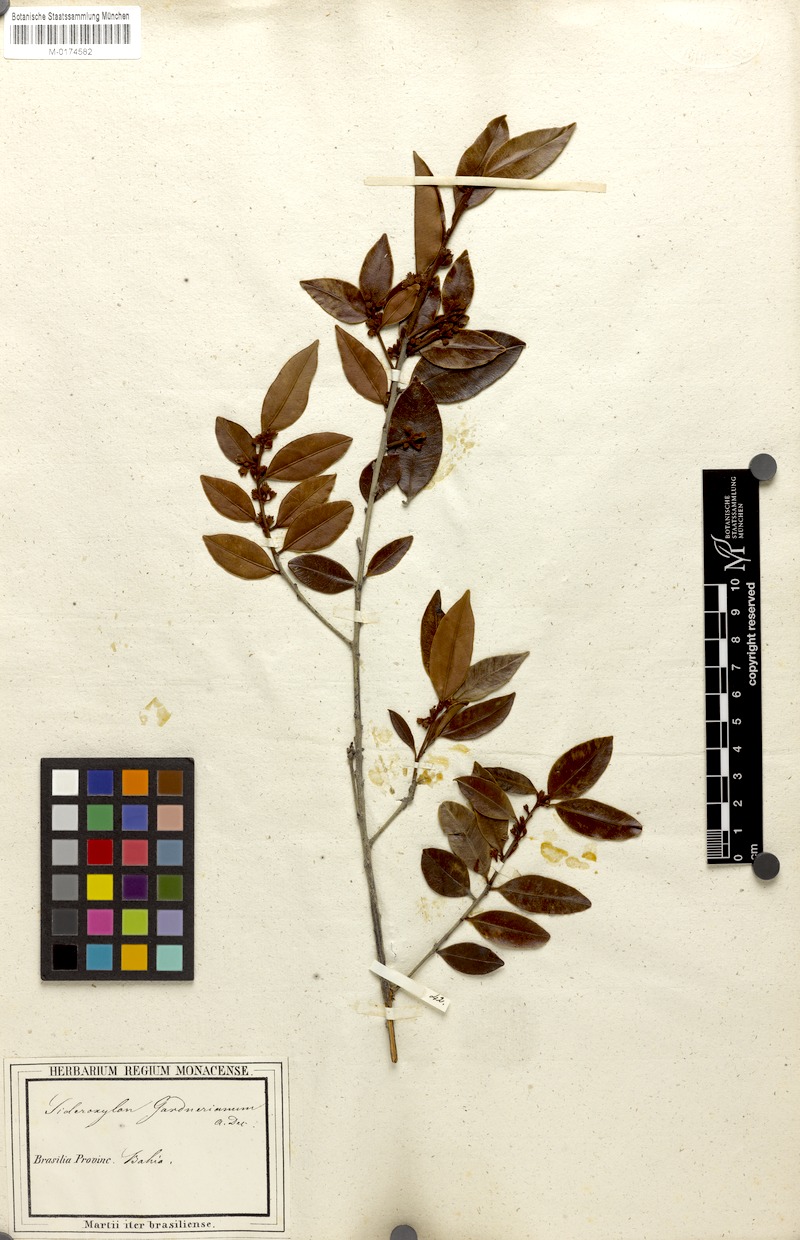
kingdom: Plantae
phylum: Tracheophyta
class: Magnoliopsida
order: Ericales
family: Sapotaceae
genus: Micropholis
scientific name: Micropholis gnaphaloclados
